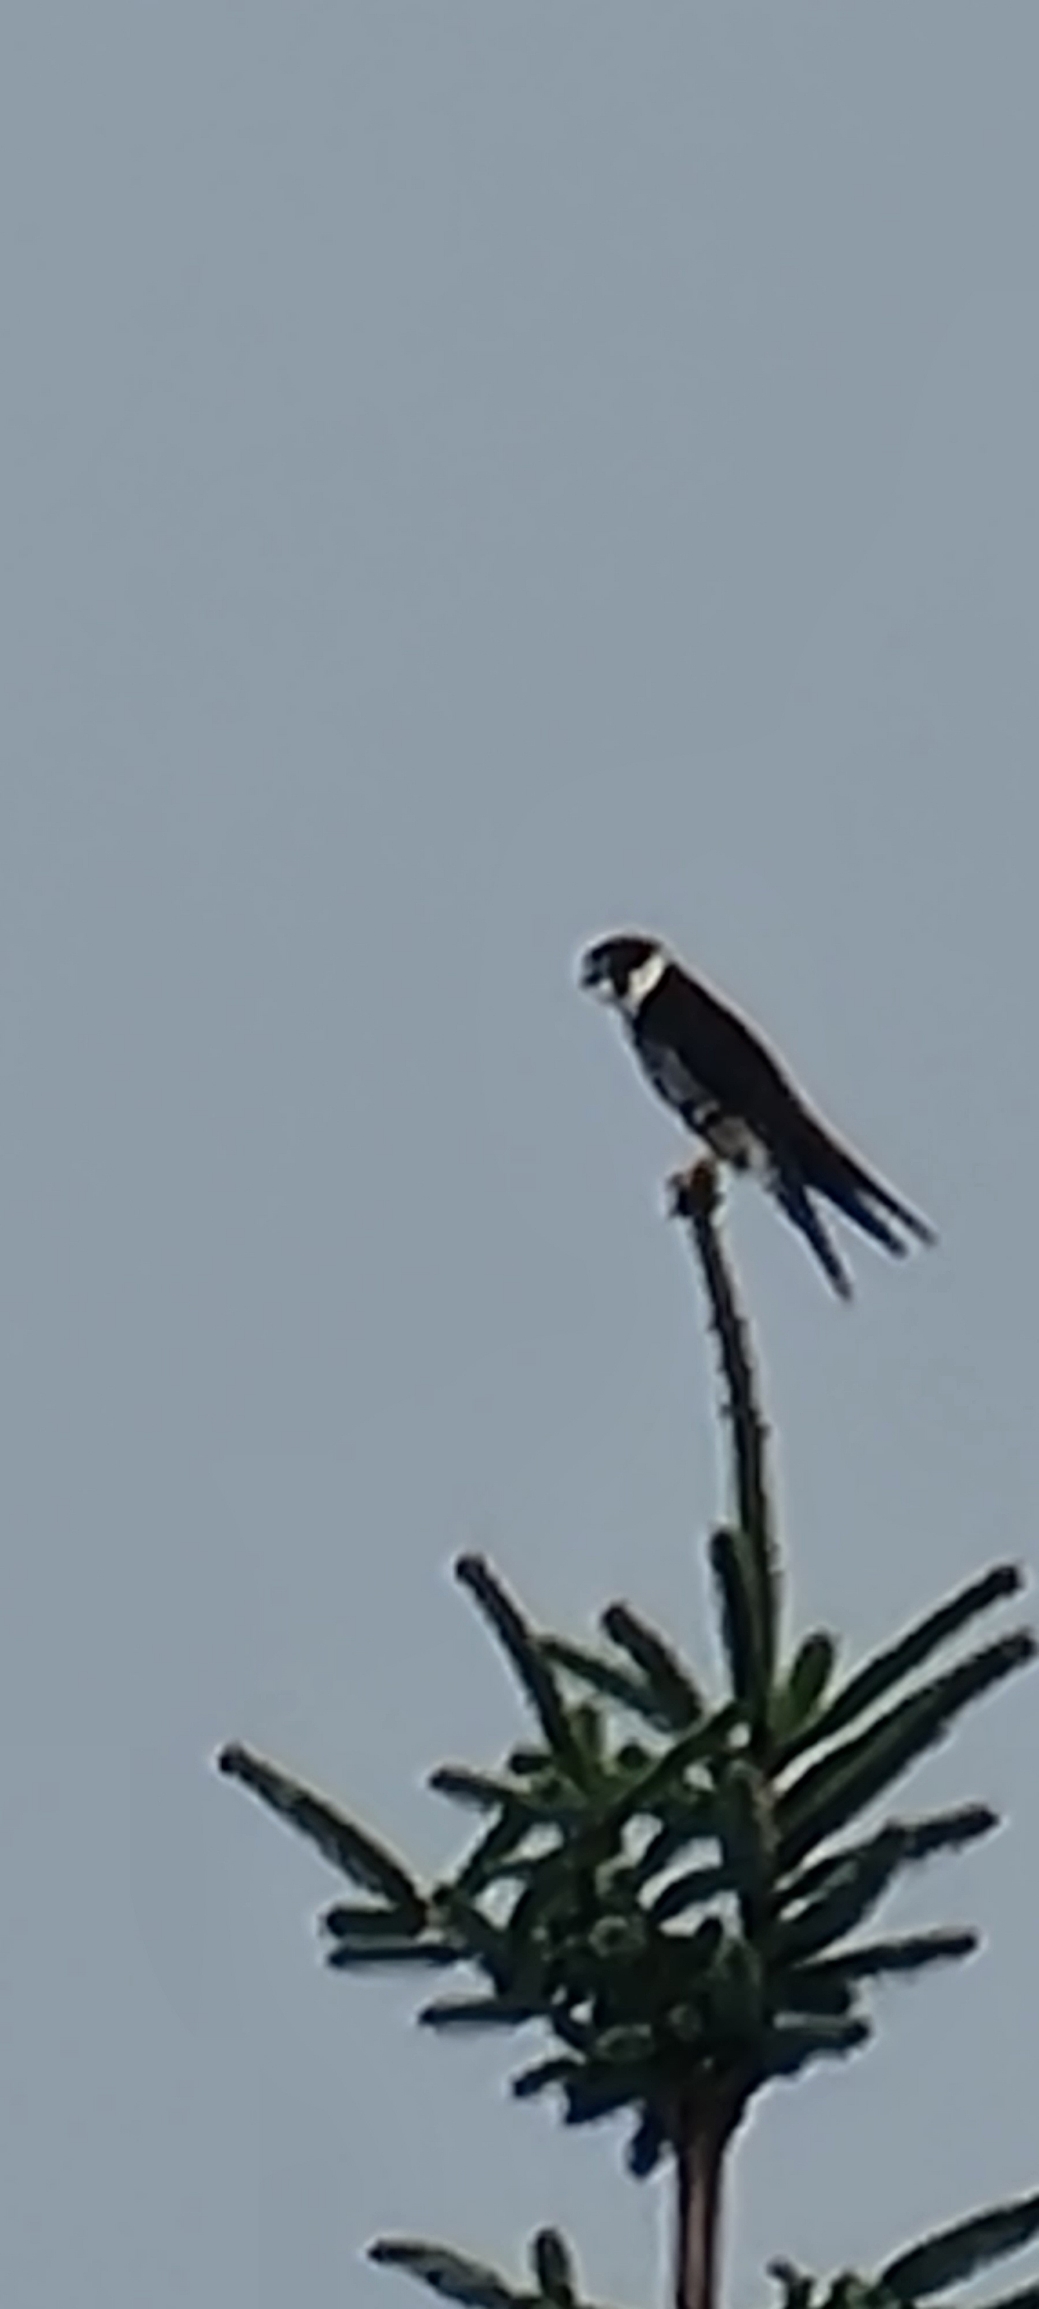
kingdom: Animalia
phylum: Chordata
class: Aves
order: Falconiformes
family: Falconidae
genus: Falco
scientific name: Falco subbuteo
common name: Lærkefalk
